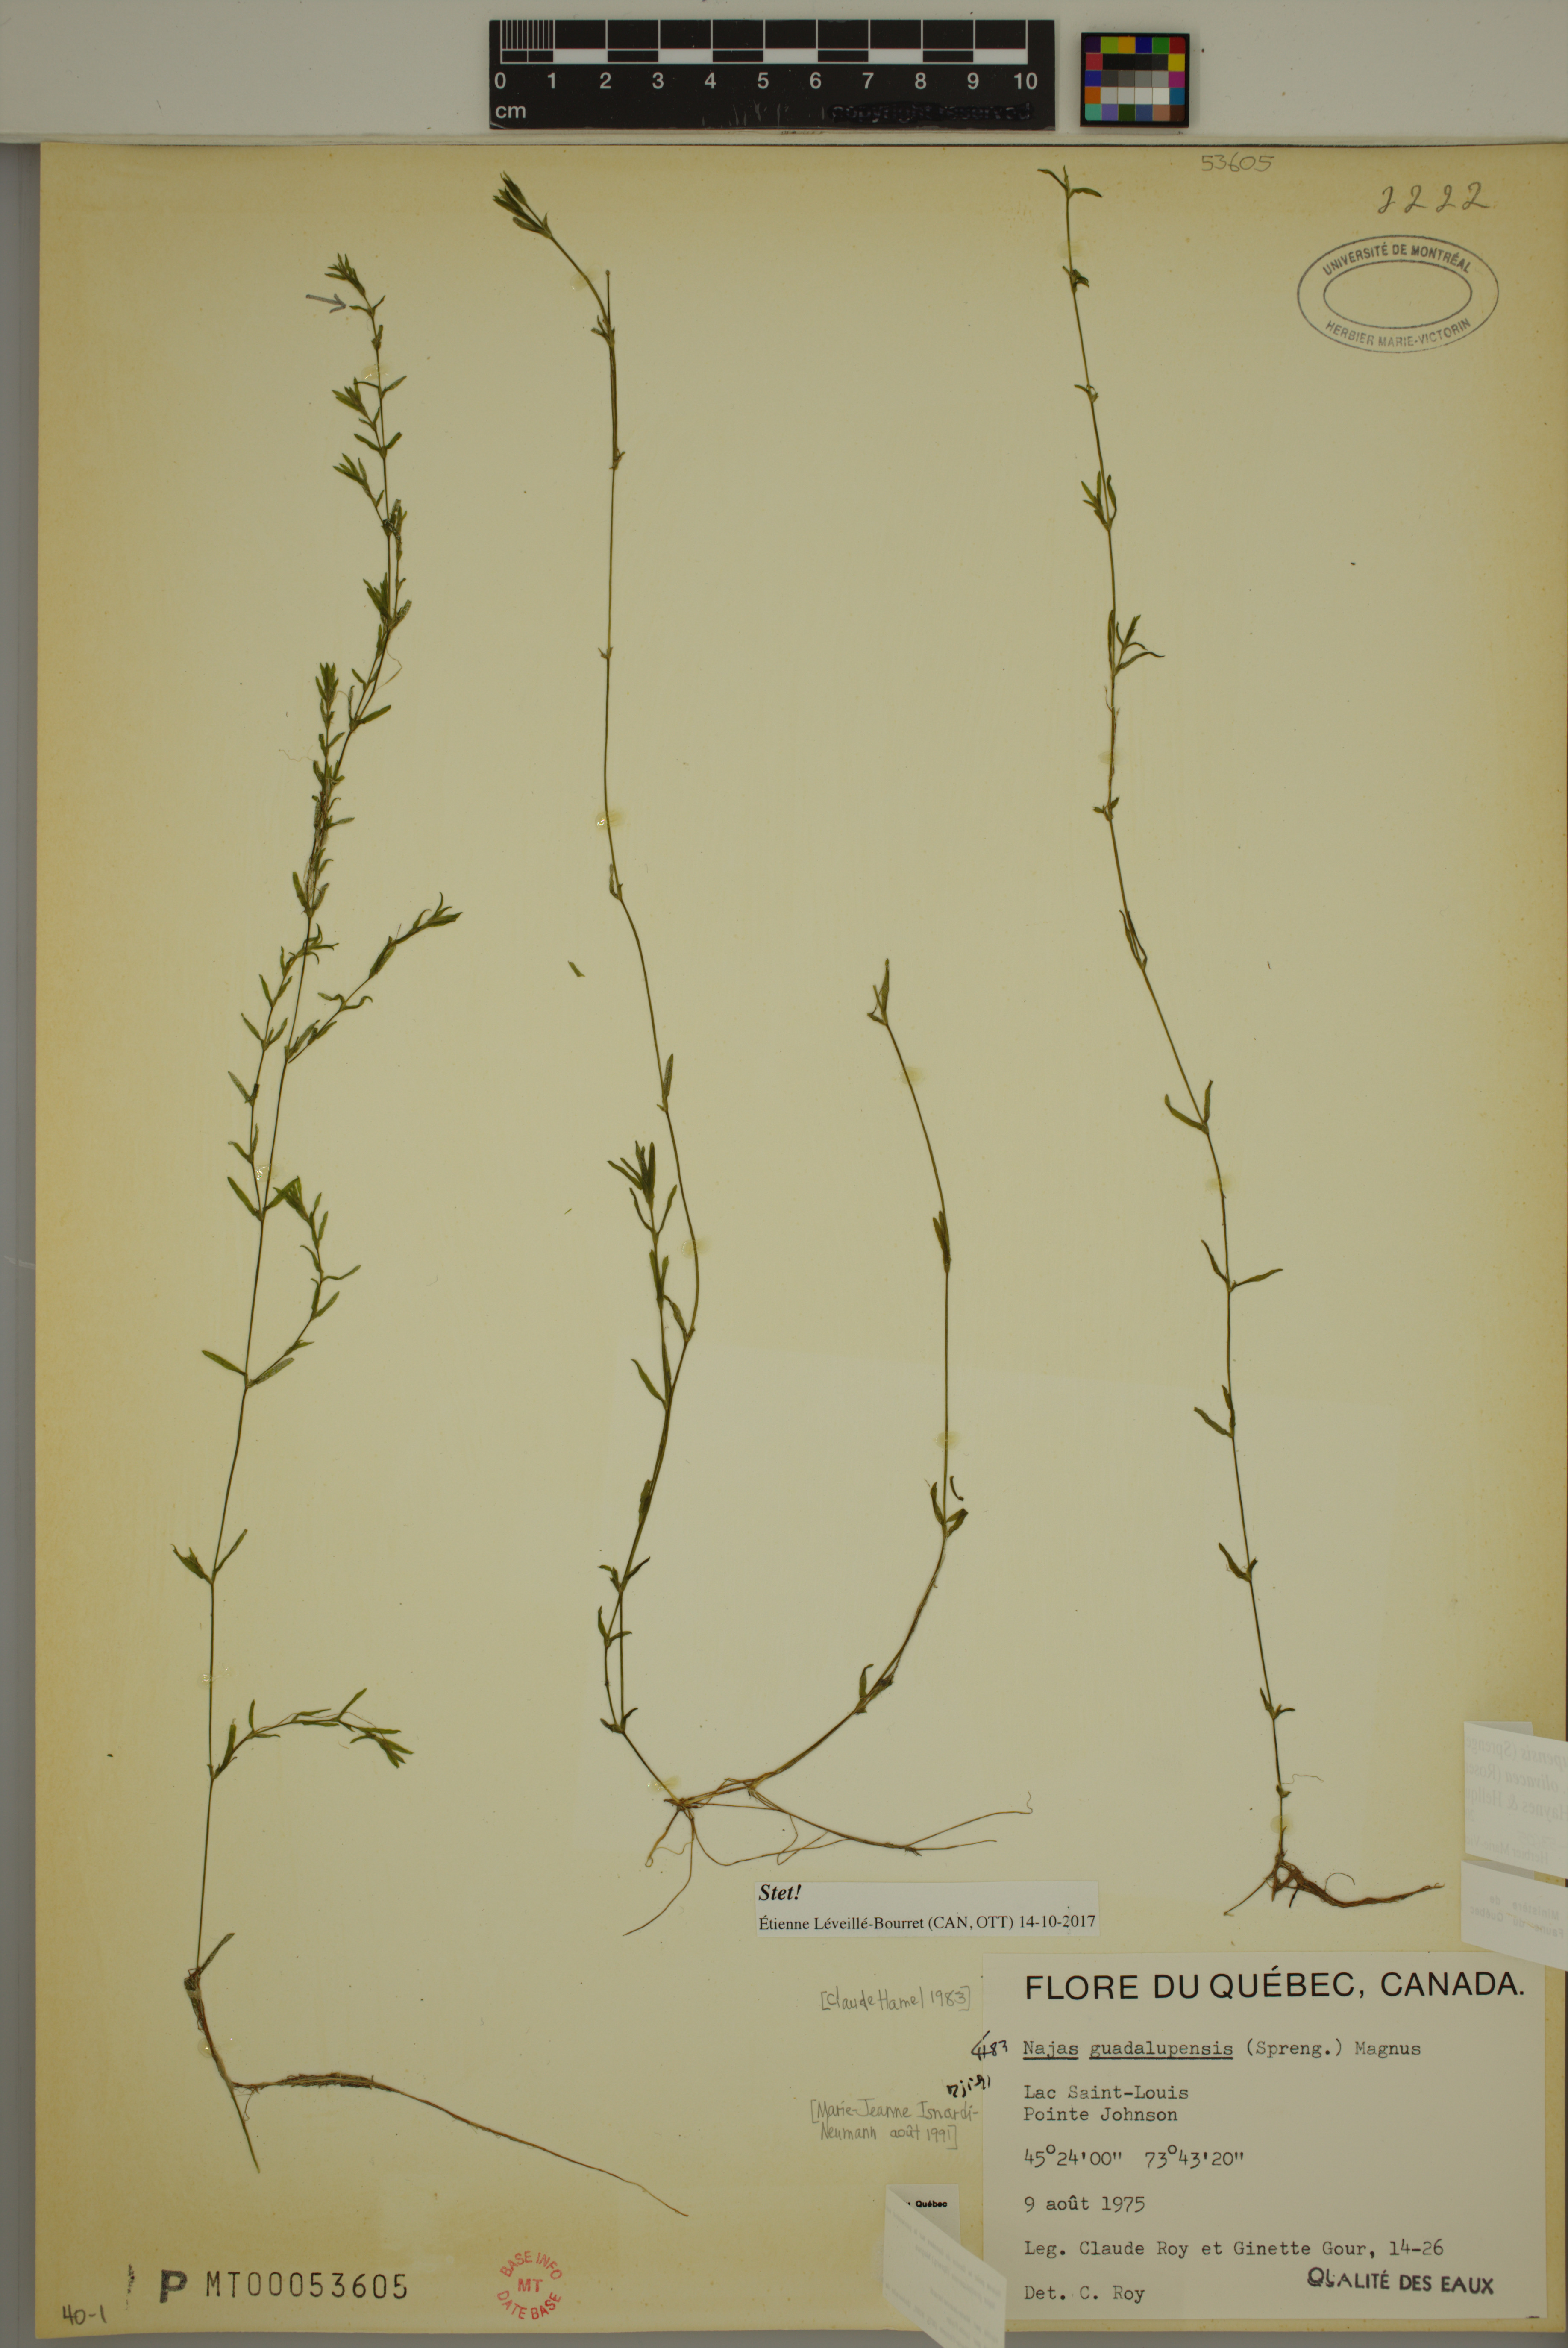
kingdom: Plantae
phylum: Tracheophyta
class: Liliopsida
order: Alismatales
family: Hydrocharitaceae
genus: Najas
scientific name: Najas guadalupensis
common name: Southern naiad
